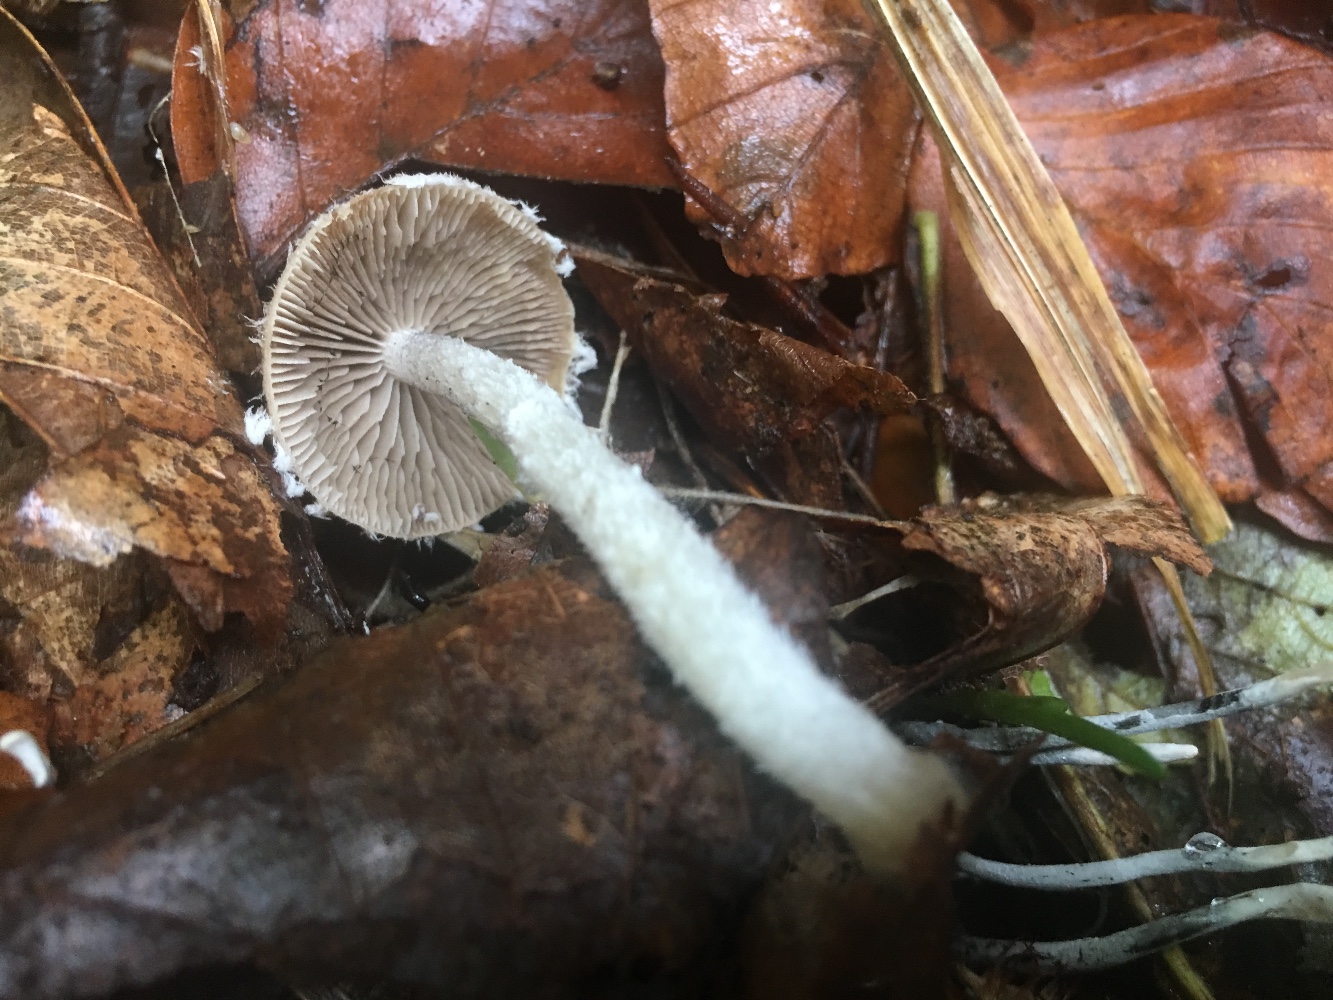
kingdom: Fungi
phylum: Basidiomycota
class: Agaricomycetes
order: Agaricales
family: Psathyrellaceae
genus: Psathyrella
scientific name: Psathyrella
